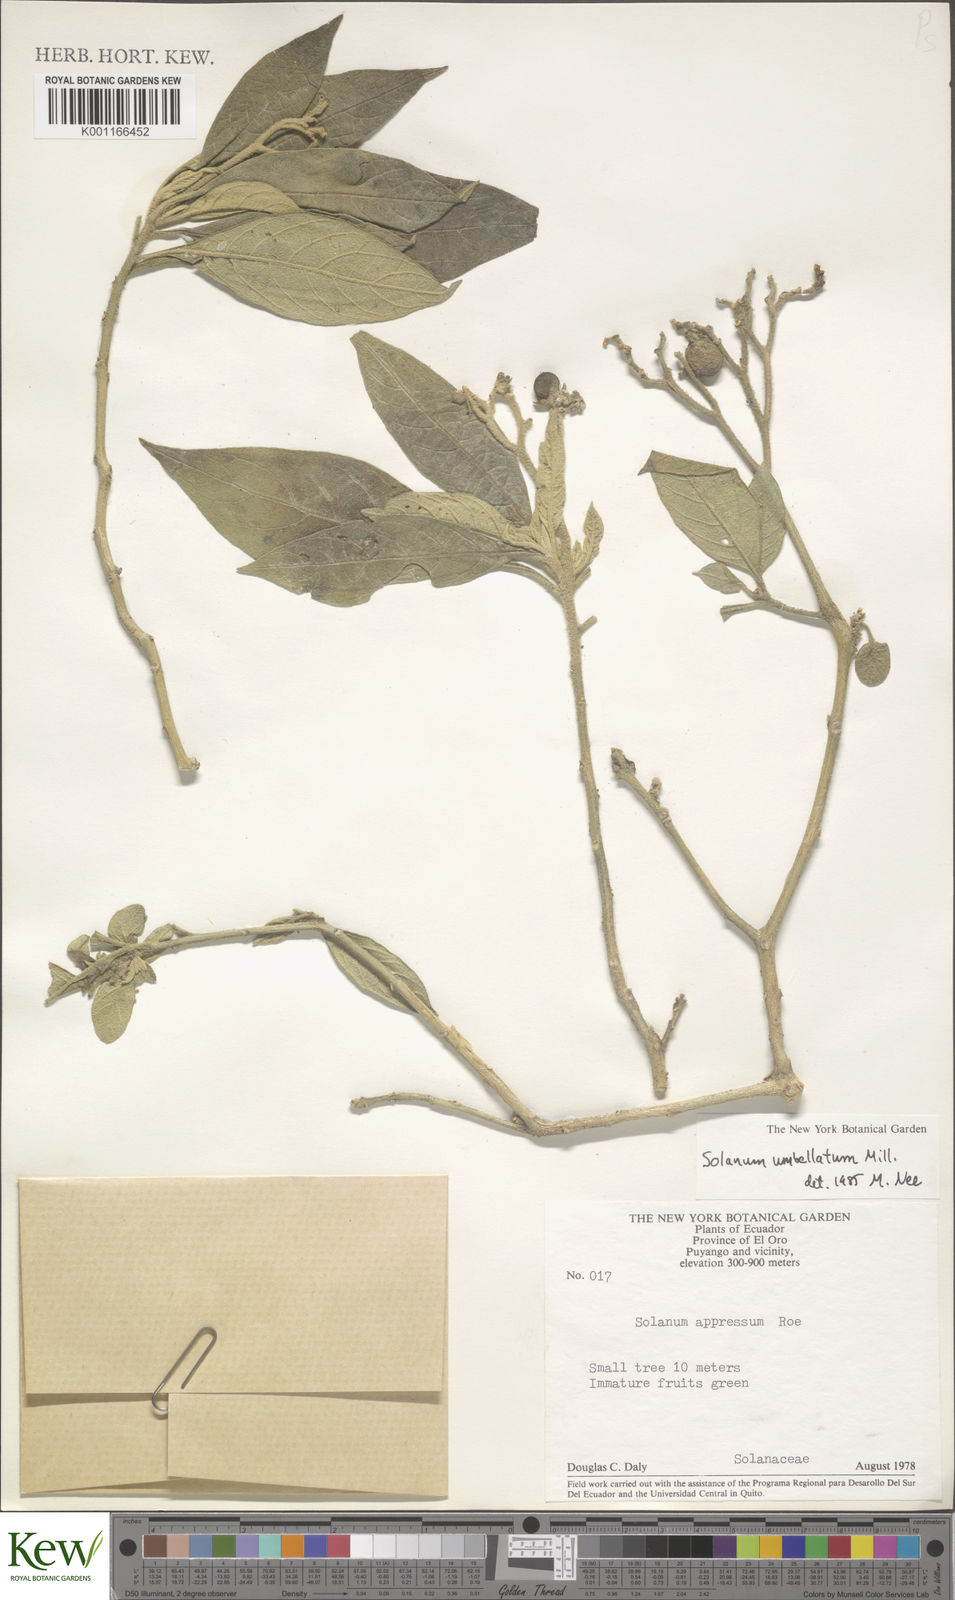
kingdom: Plantae
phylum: Tracheophyta
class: Magnoliopsida
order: Solanales
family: Solanaceae
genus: Solanum
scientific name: Solanum umbellatum
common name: Nightshade
